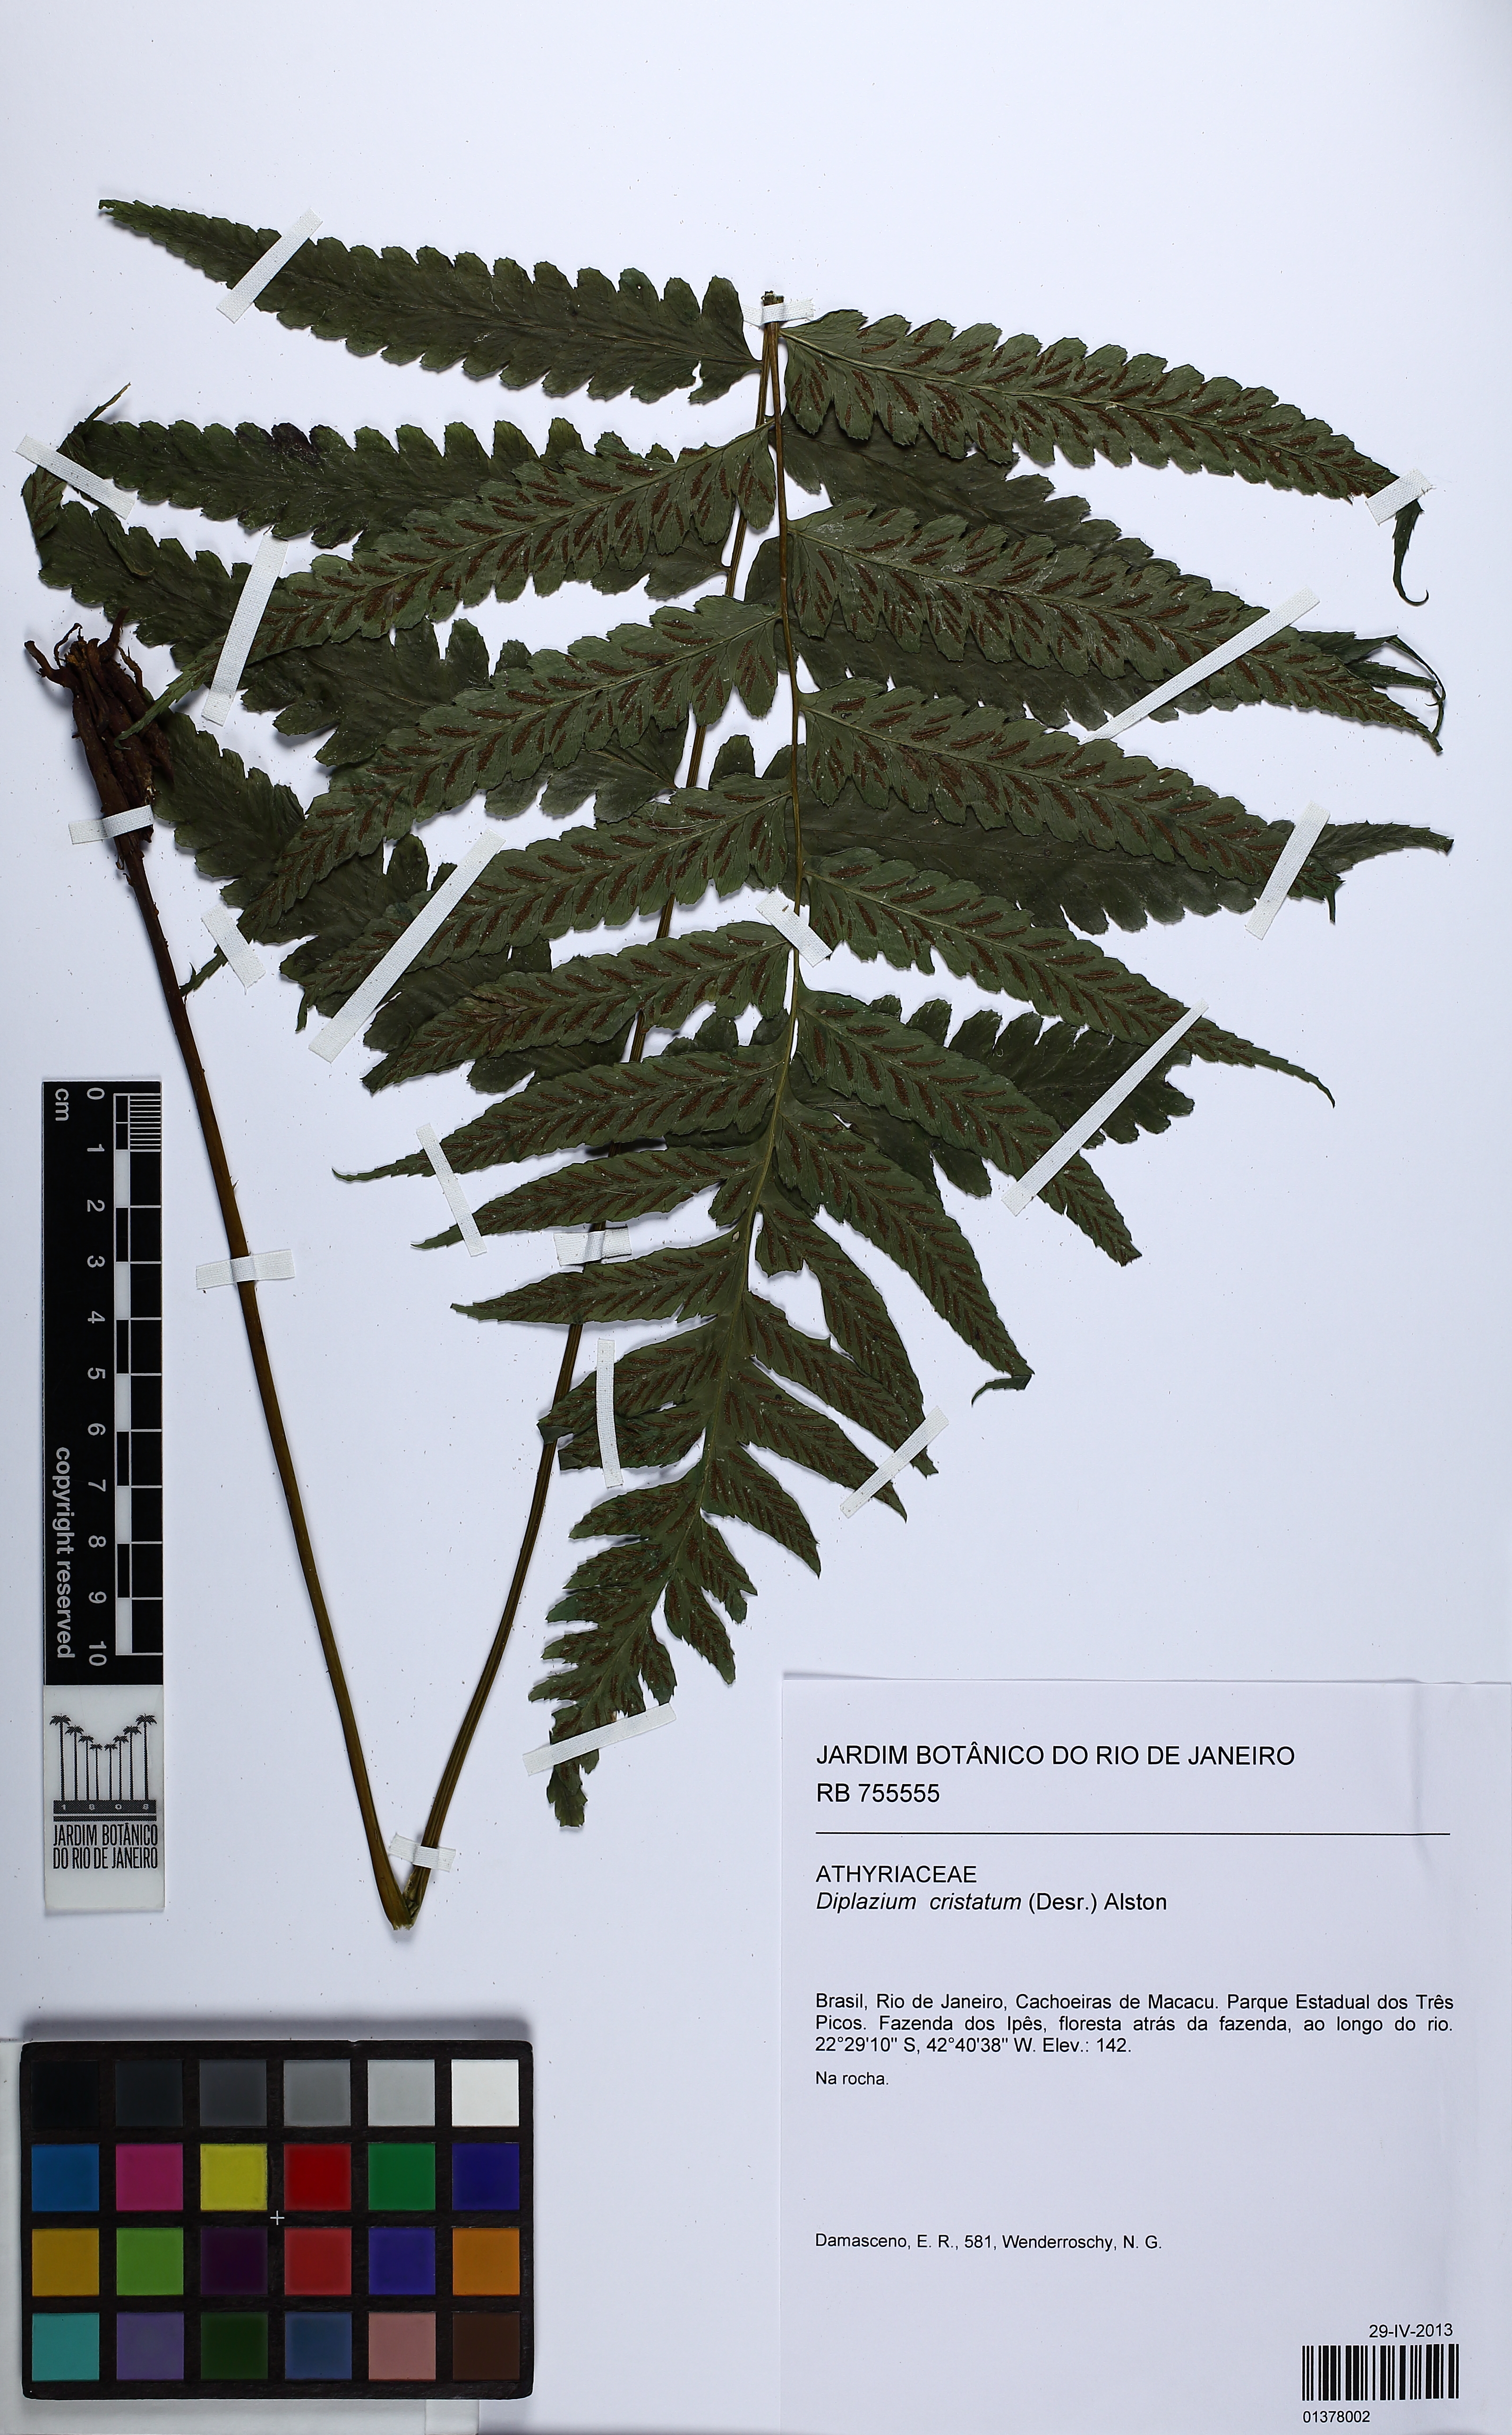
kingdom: Plantae
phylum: Tracheophyta
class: Polypodiopsida
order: Polypodiales
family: Athyriaceae
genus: Diplazium
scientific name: Diplazium cristatum
